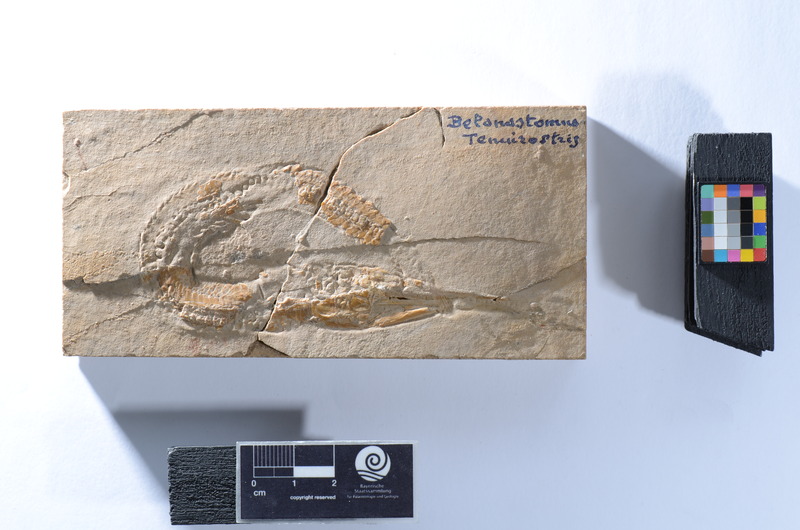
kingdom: Animalia
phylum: Chordata
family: Aspidorhynchidae
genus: Belonostomus
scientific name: Belonostomus tenuirostris
